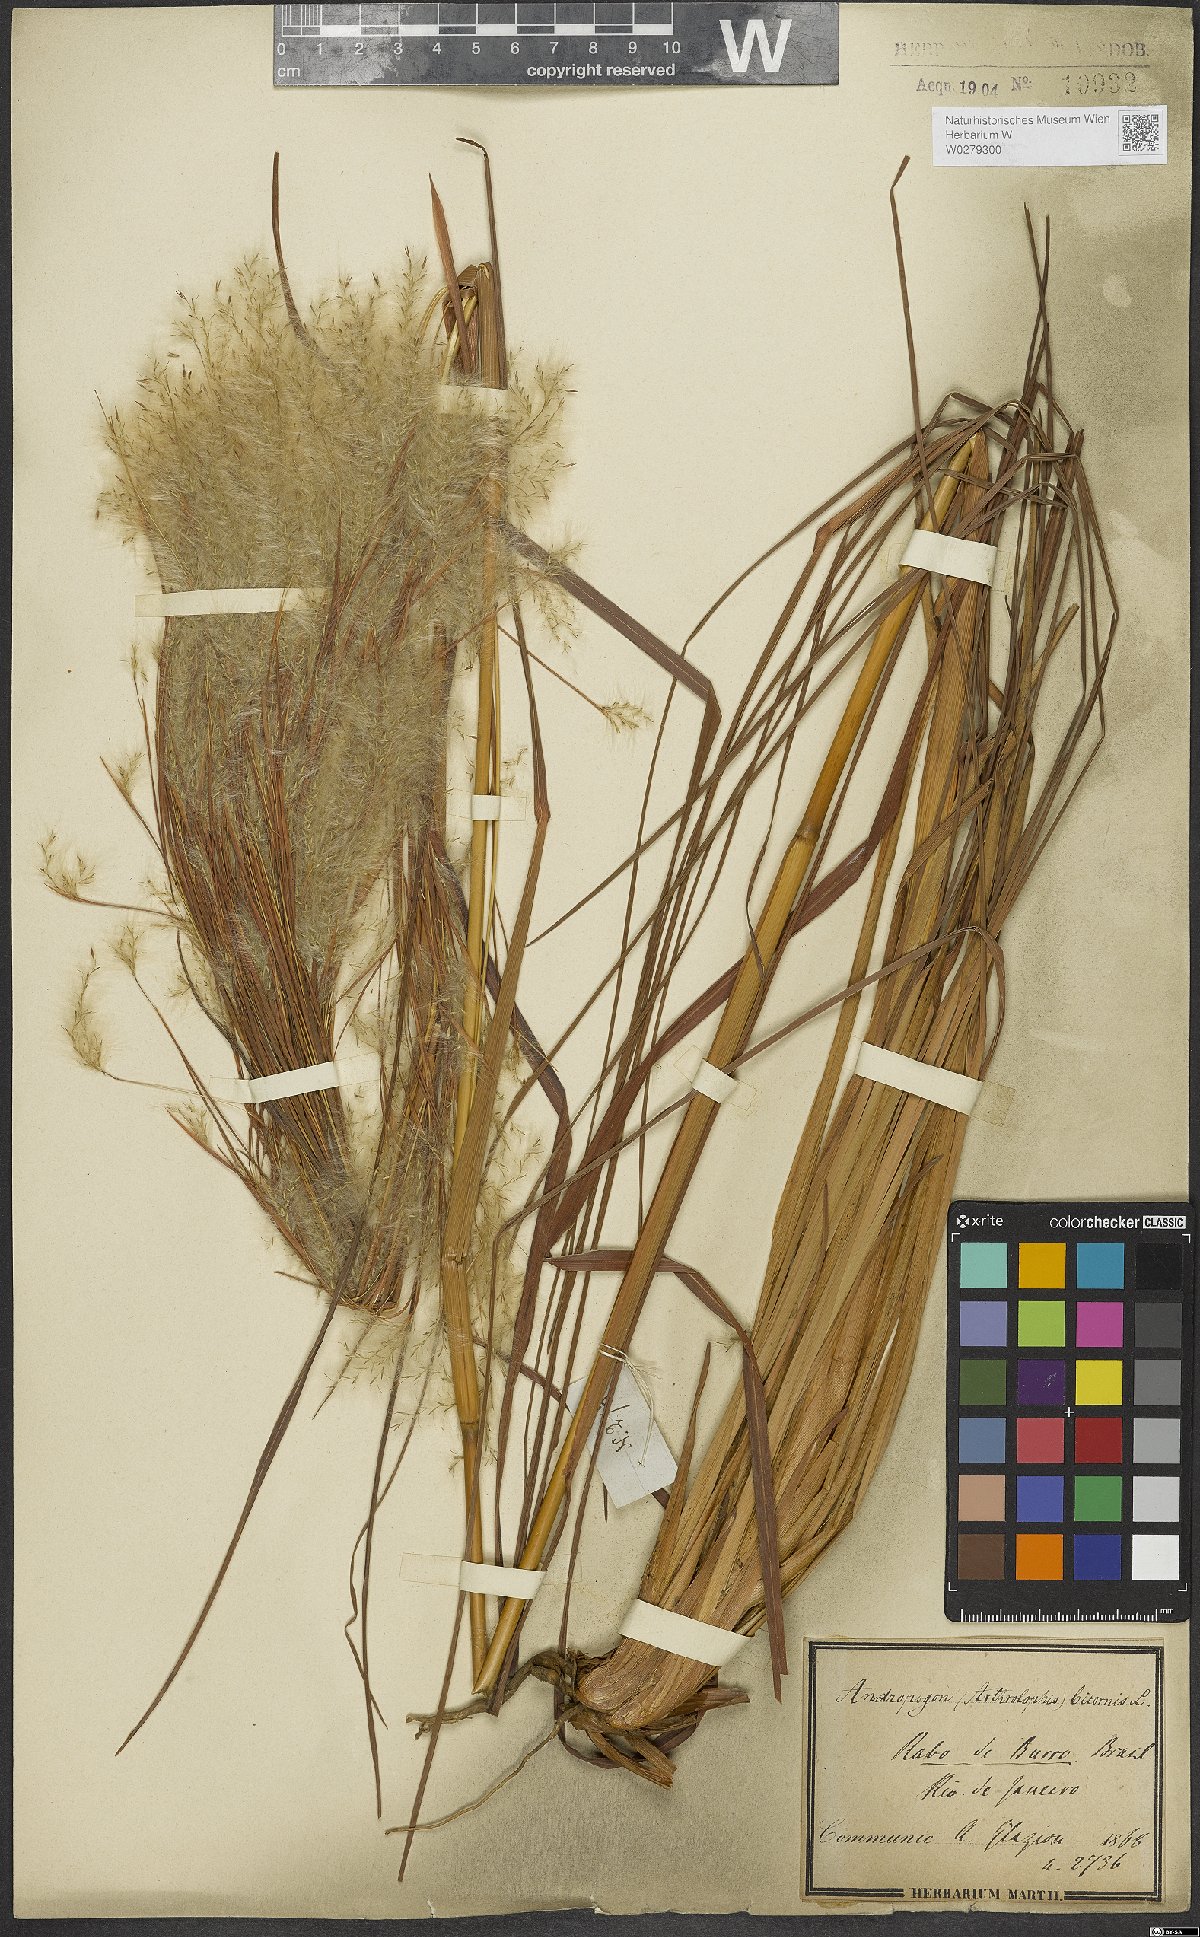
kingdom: Plantae
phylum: Tracheophyta
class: Liliopsida
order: Poales
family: Poaceae
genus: Andropogon
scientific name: Andropogon bicornis
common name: West indian foxtail grass
